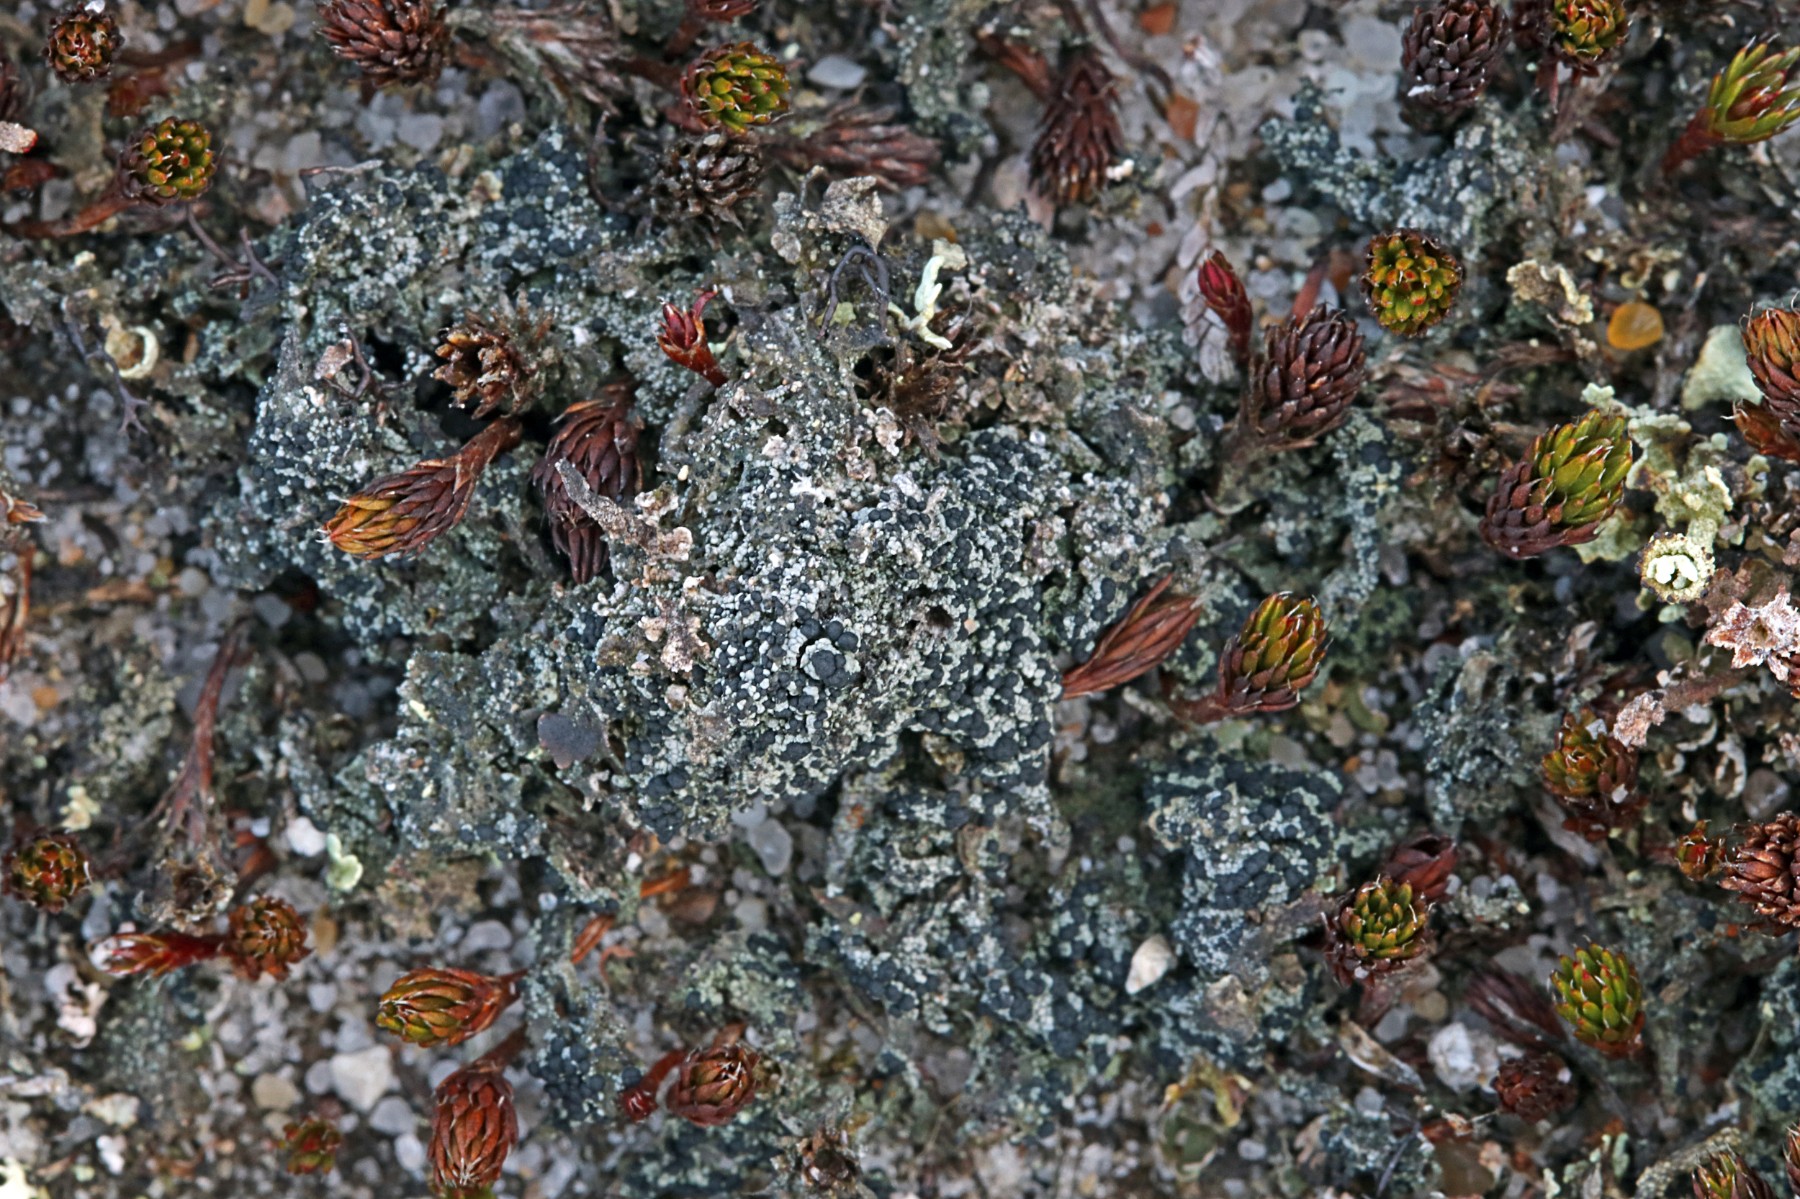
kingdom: Fungi
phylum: Ascomycota
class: Lecanoromycetes
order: Lecanorales
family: Byssolomataceae
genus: Micarea
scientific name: Micarea lignaria
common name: tørve-knaplav
